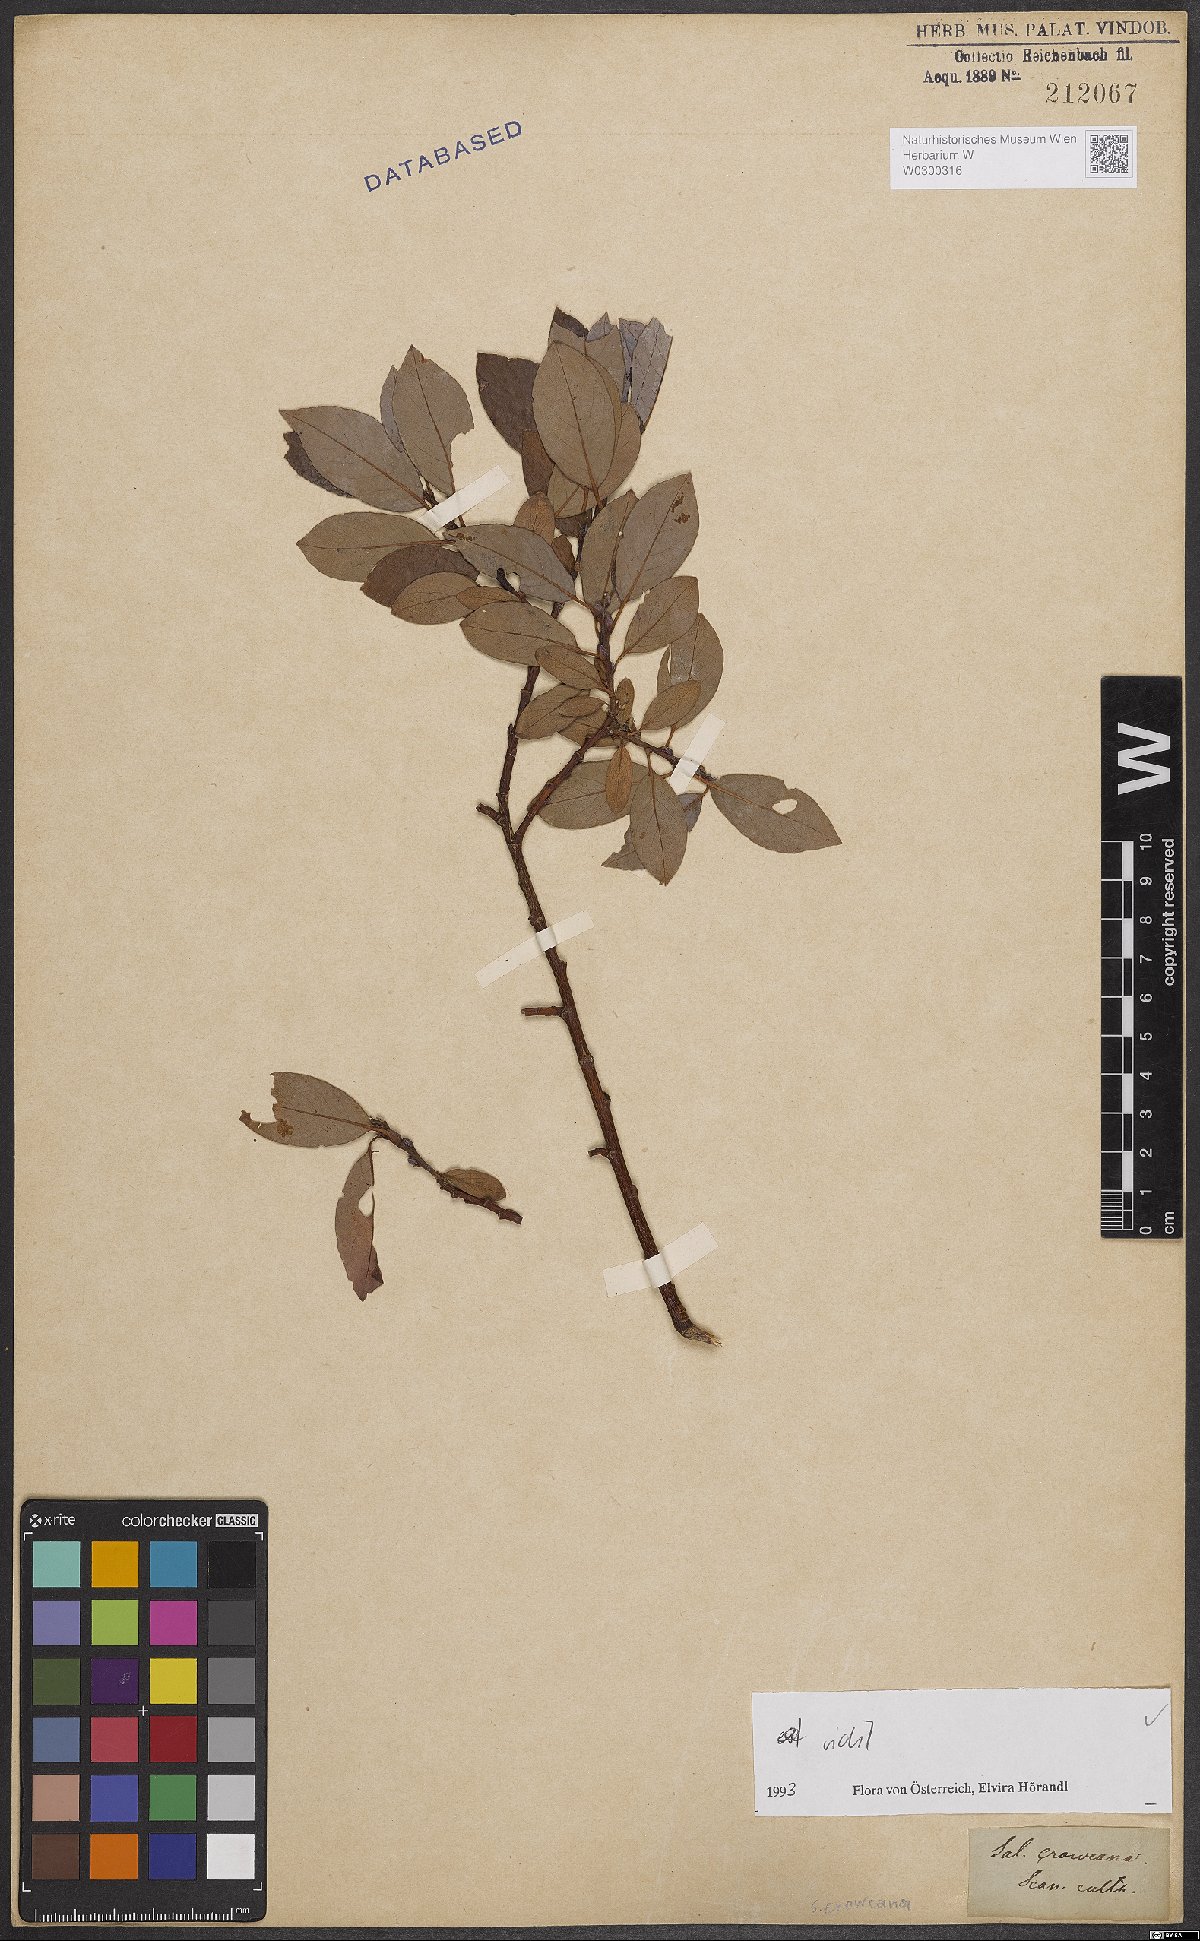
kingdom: Plantae
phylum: Tracheophyta
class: Magnoliopsida
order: Malpighiales
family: Salicaceae
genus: Salix
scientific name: Salix phylicifolia
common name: Tea-leaved willow
